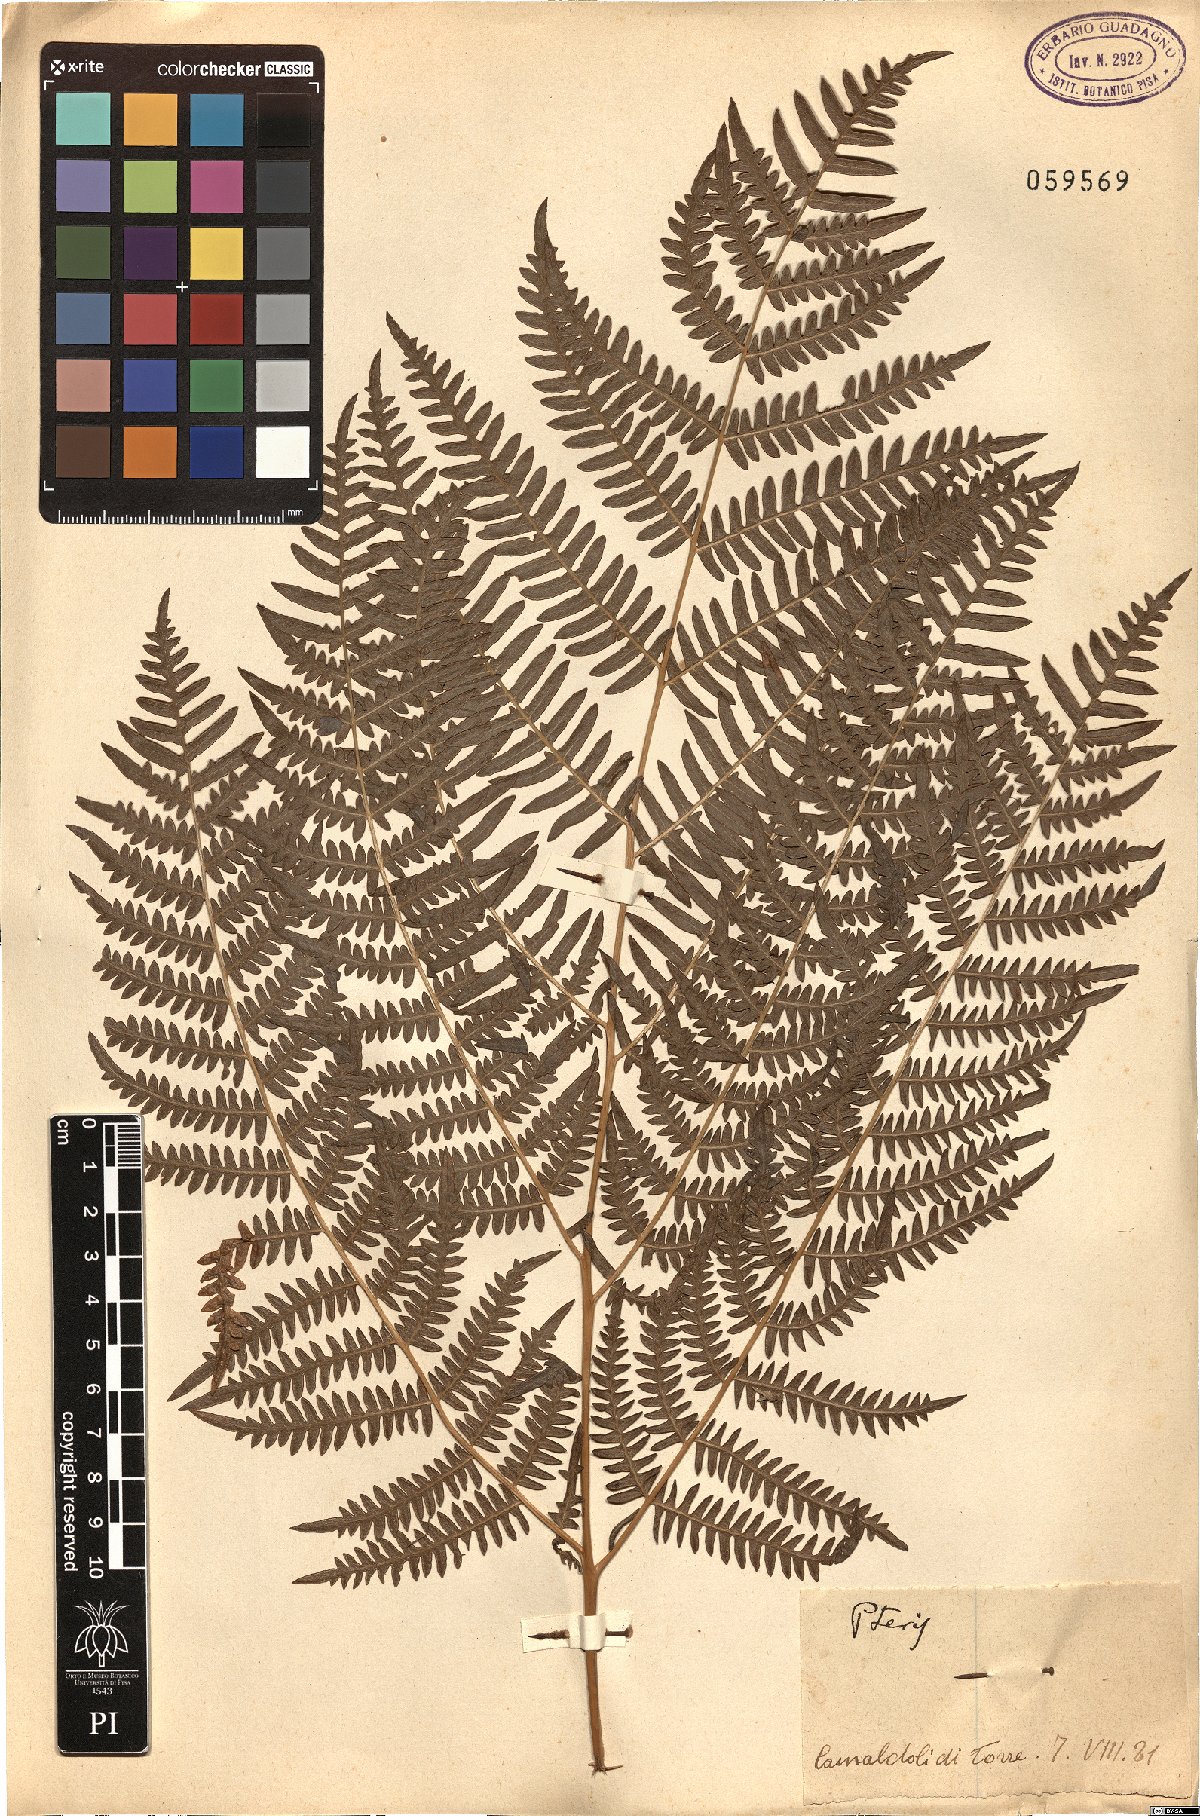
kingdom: Plantae
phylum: Tracheophyta
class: Polypodiopsida
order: Polypodiales
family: Pteridaceae
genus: Pteris
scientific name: Pteris
